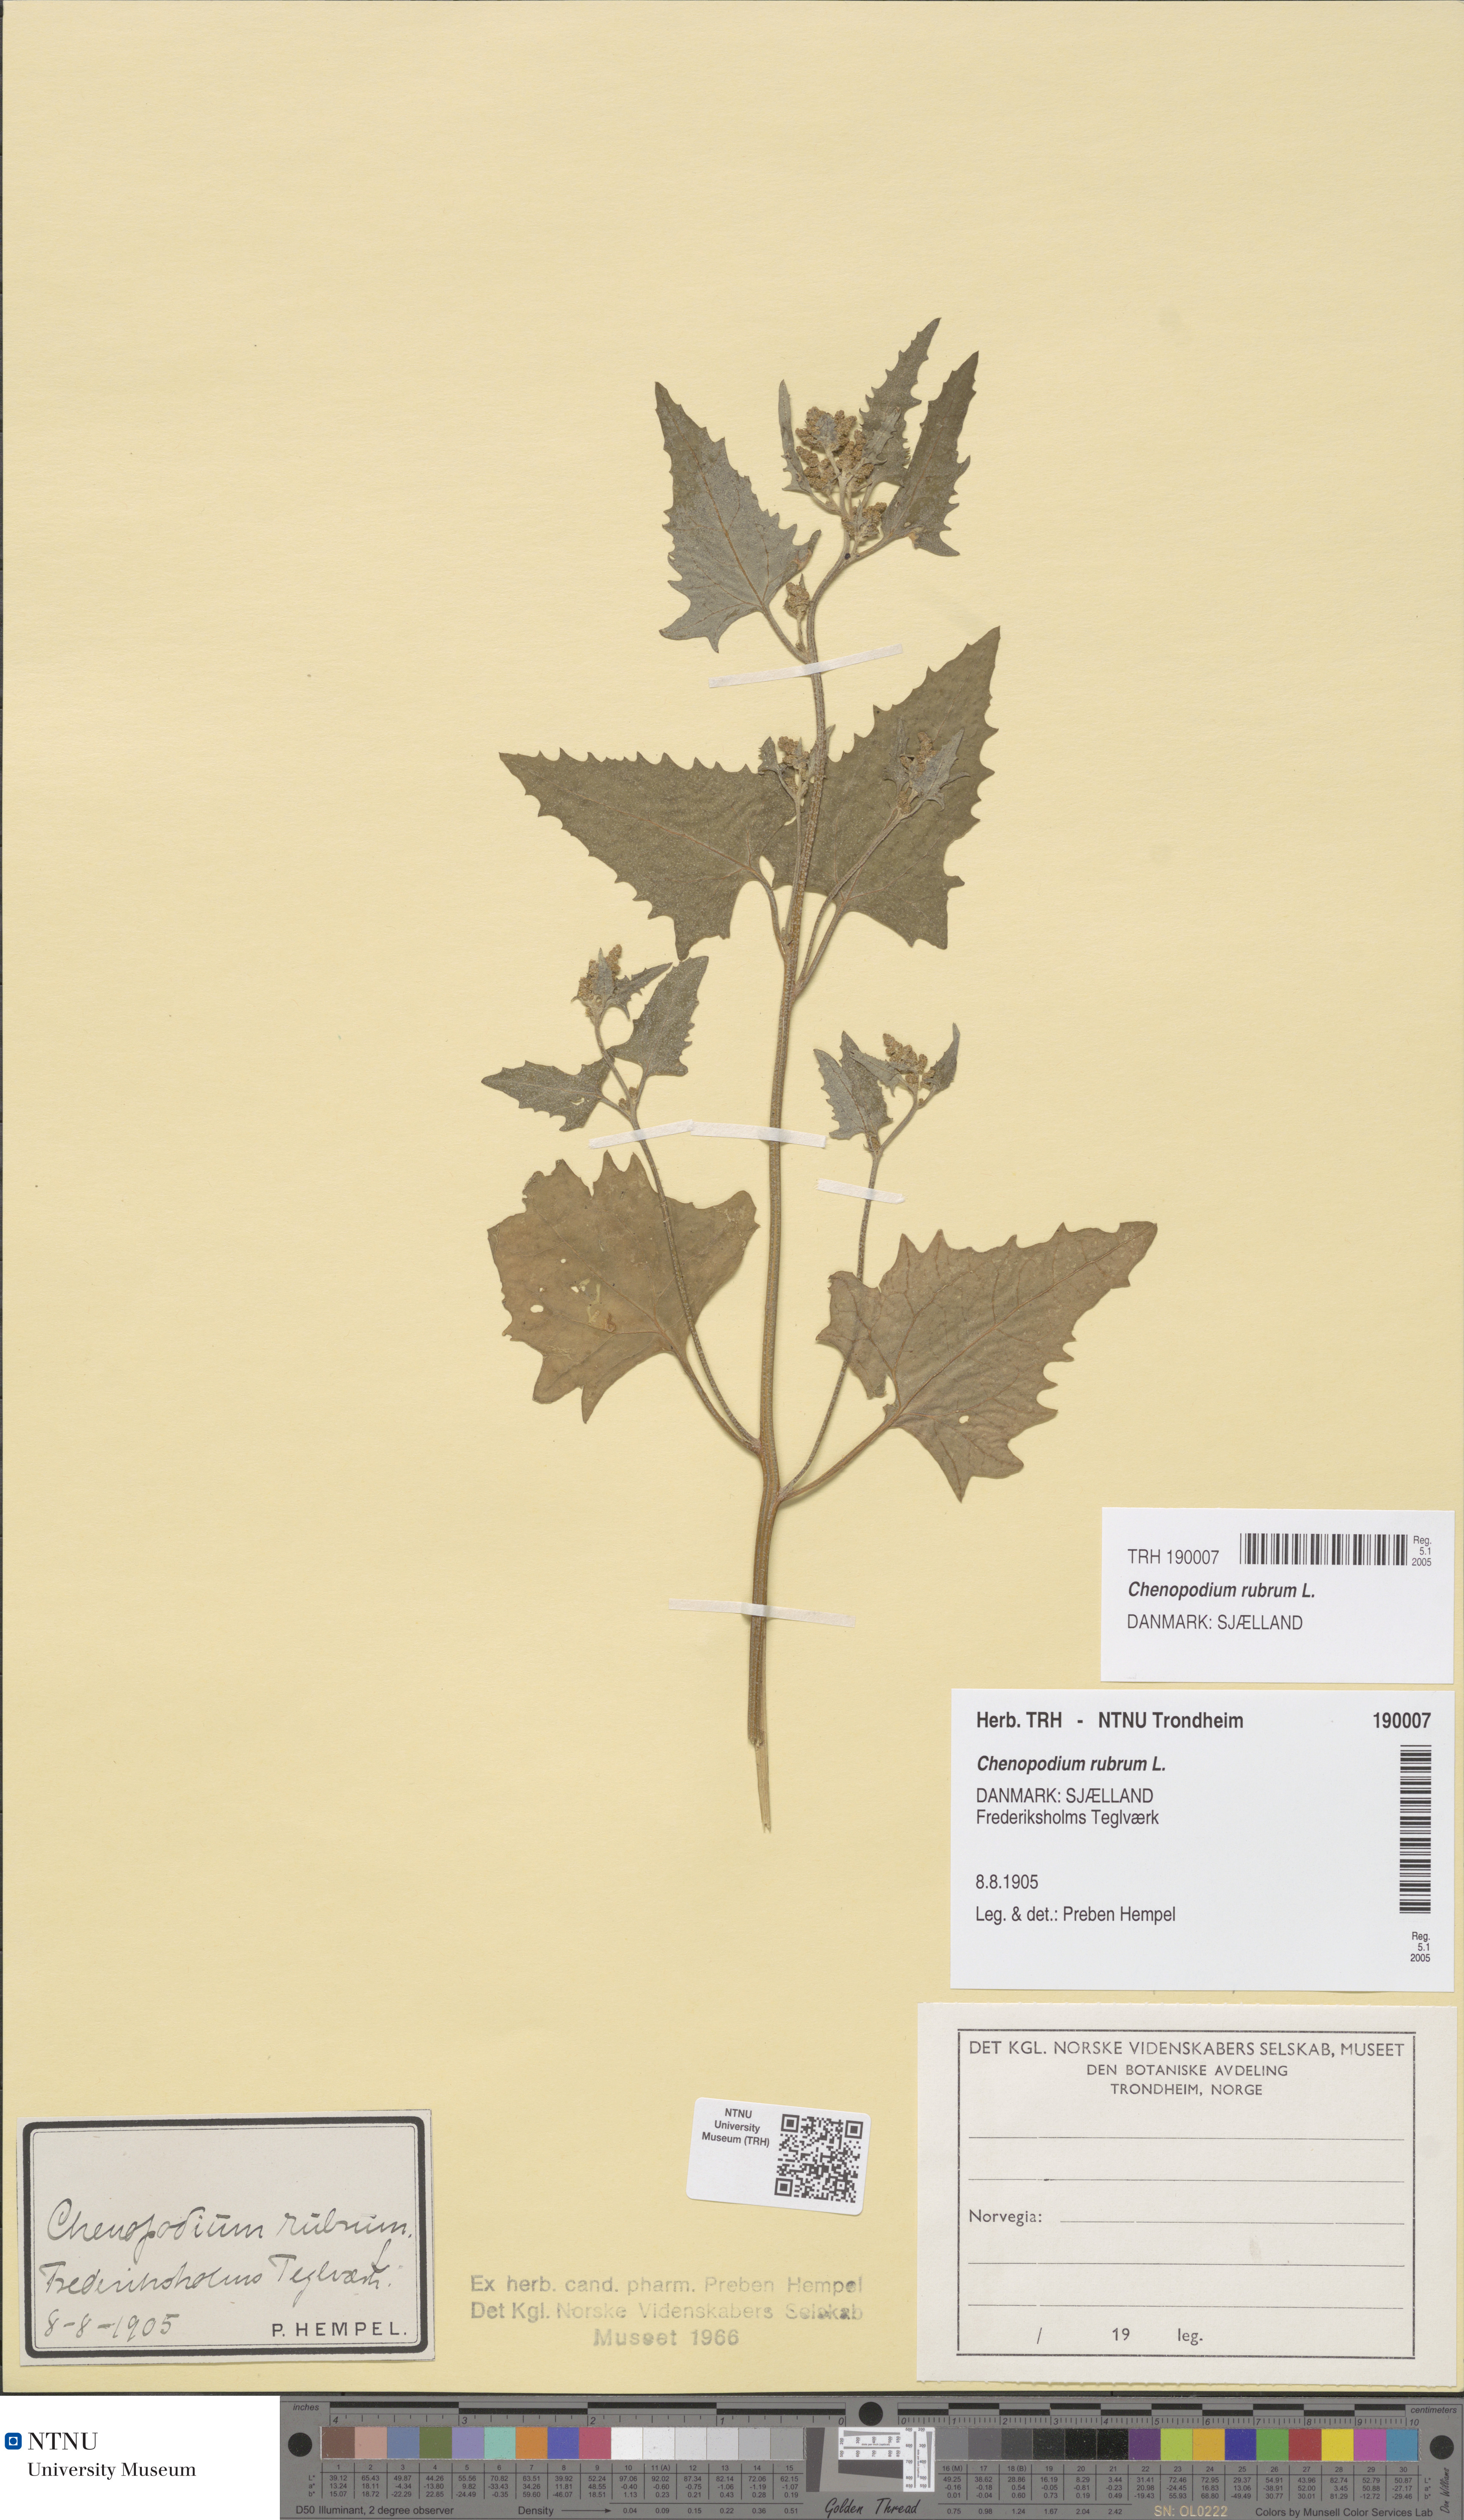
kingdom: Plantae
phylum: Tracheophyta
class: Magnoliopsida
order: Caryophyllales
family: Amaranthaceae
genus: Oxybasis
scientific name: Oxybasis rubra
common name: Red goosefoot
